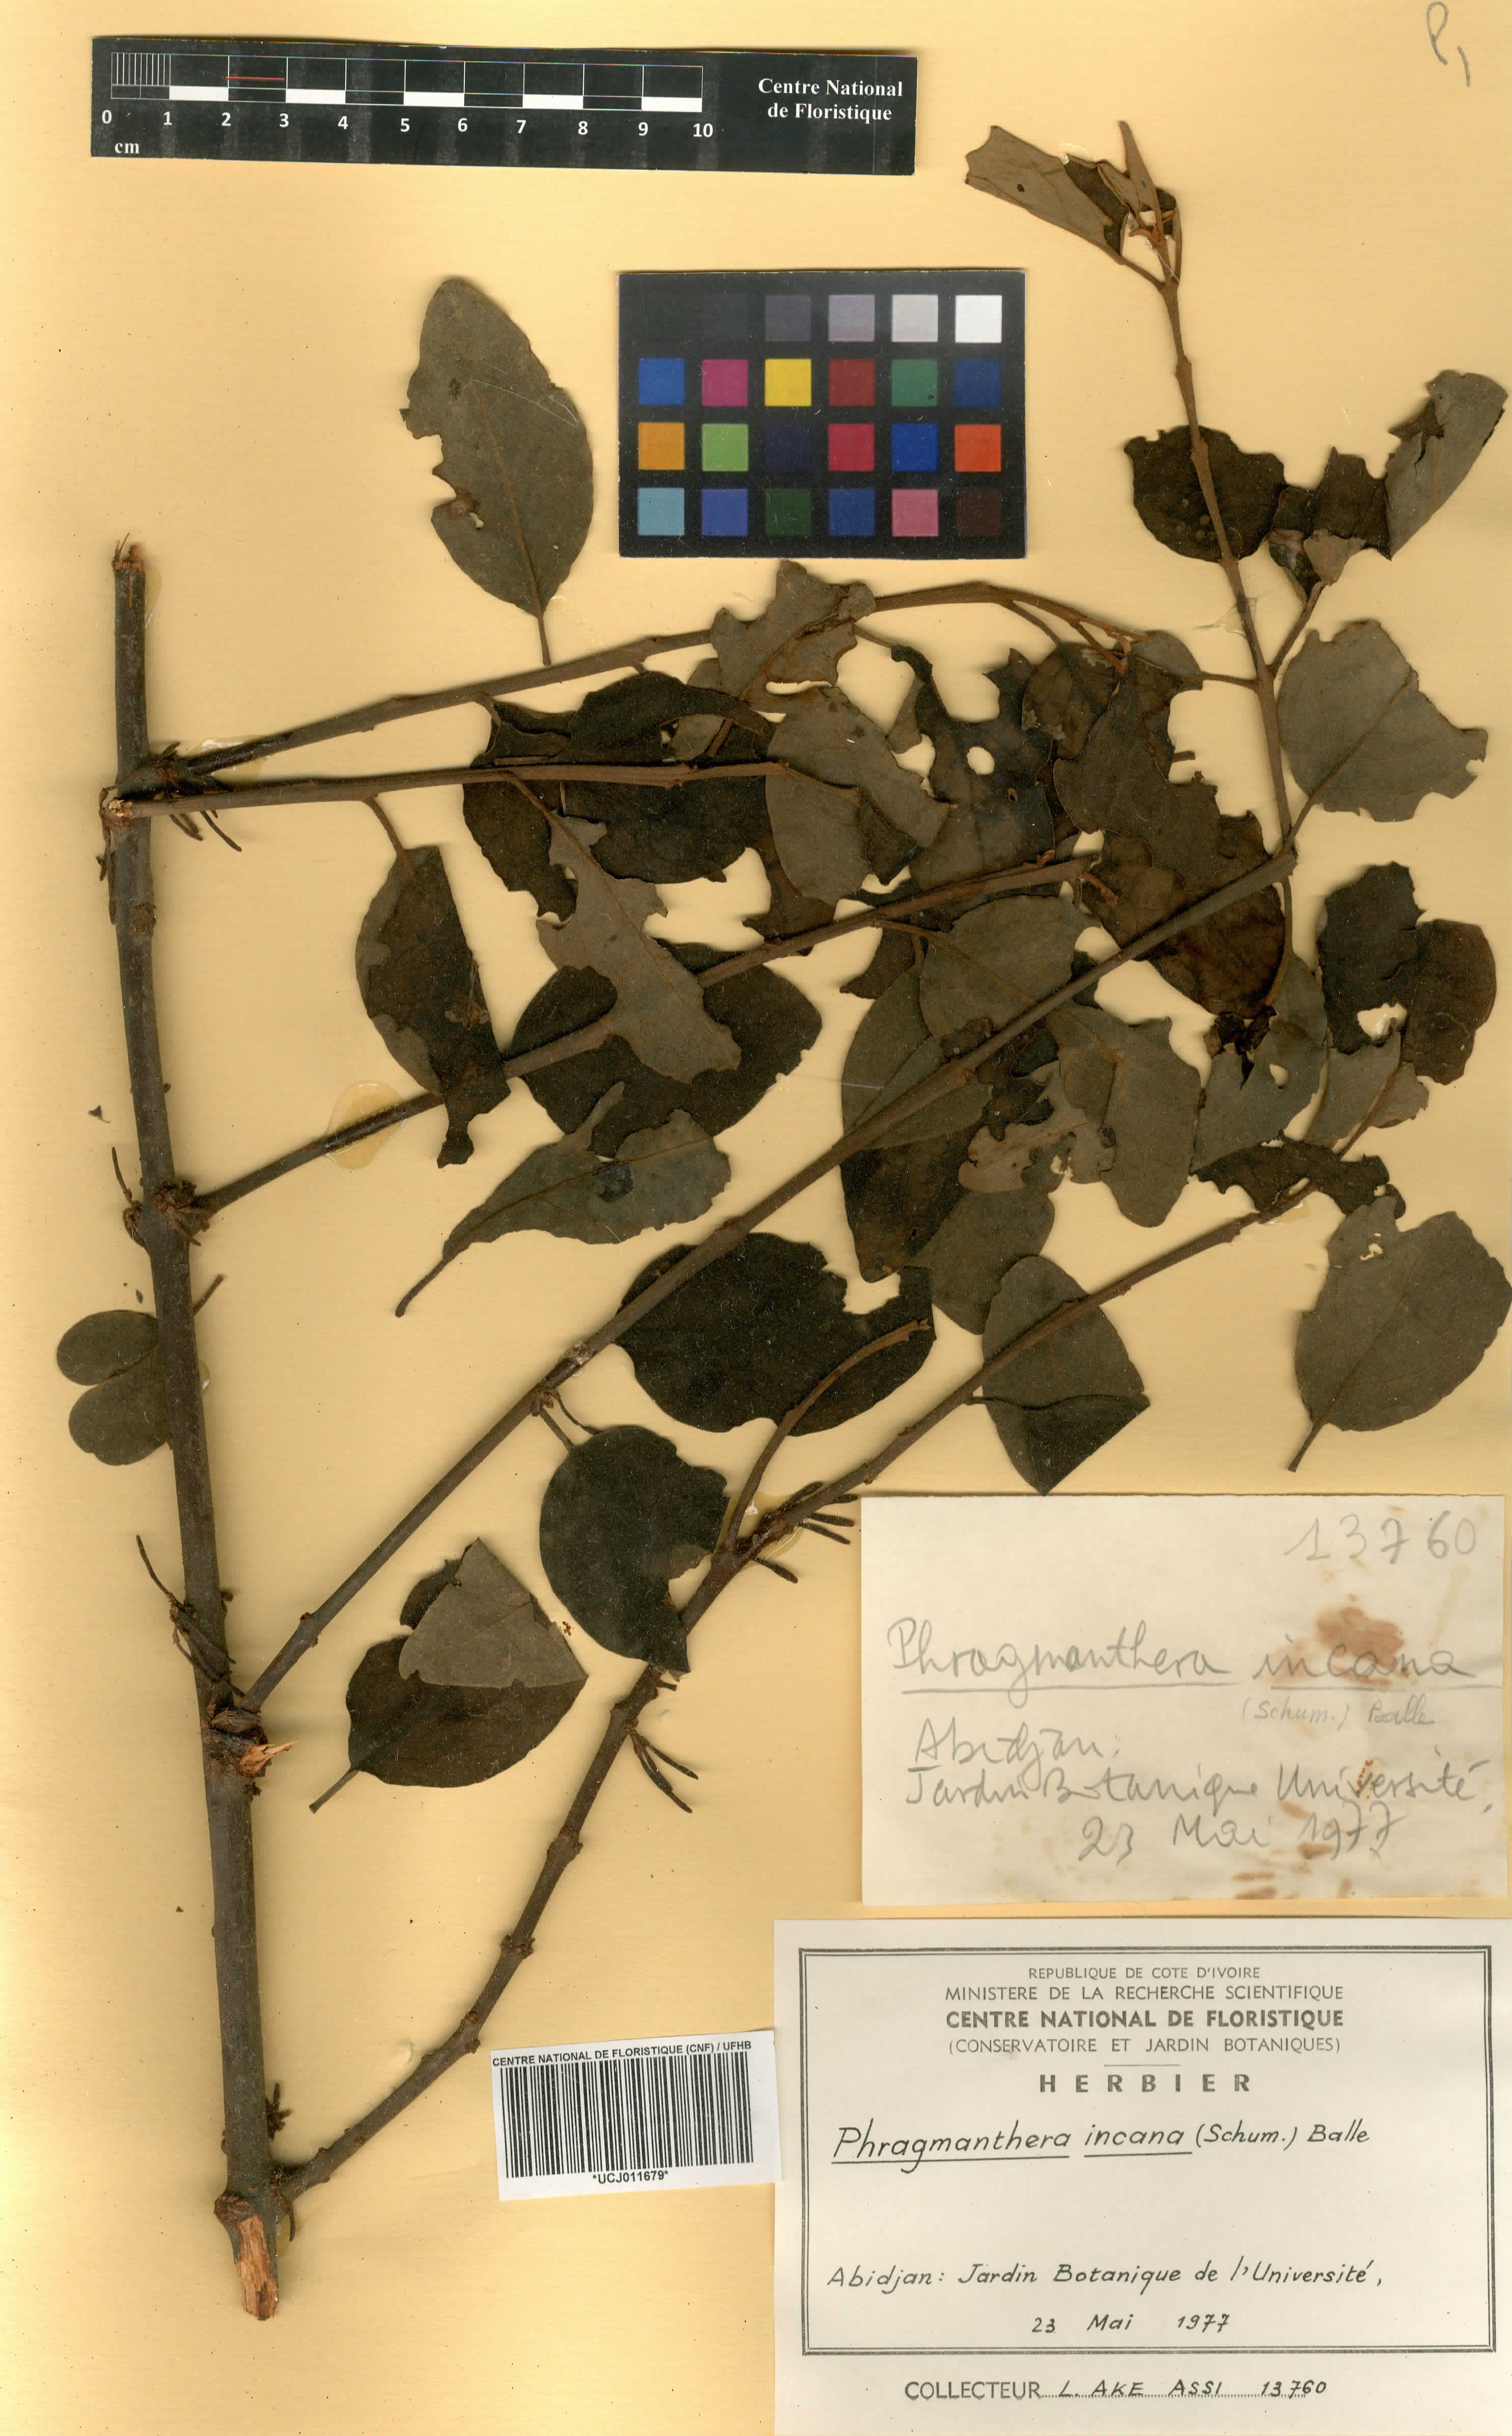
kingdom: Plantae
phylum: Tracheophyta
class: Magnoliopsida
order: Santalales
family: Loranthaceae
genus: Phragmanthera
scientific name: Phragmanthera capitata
